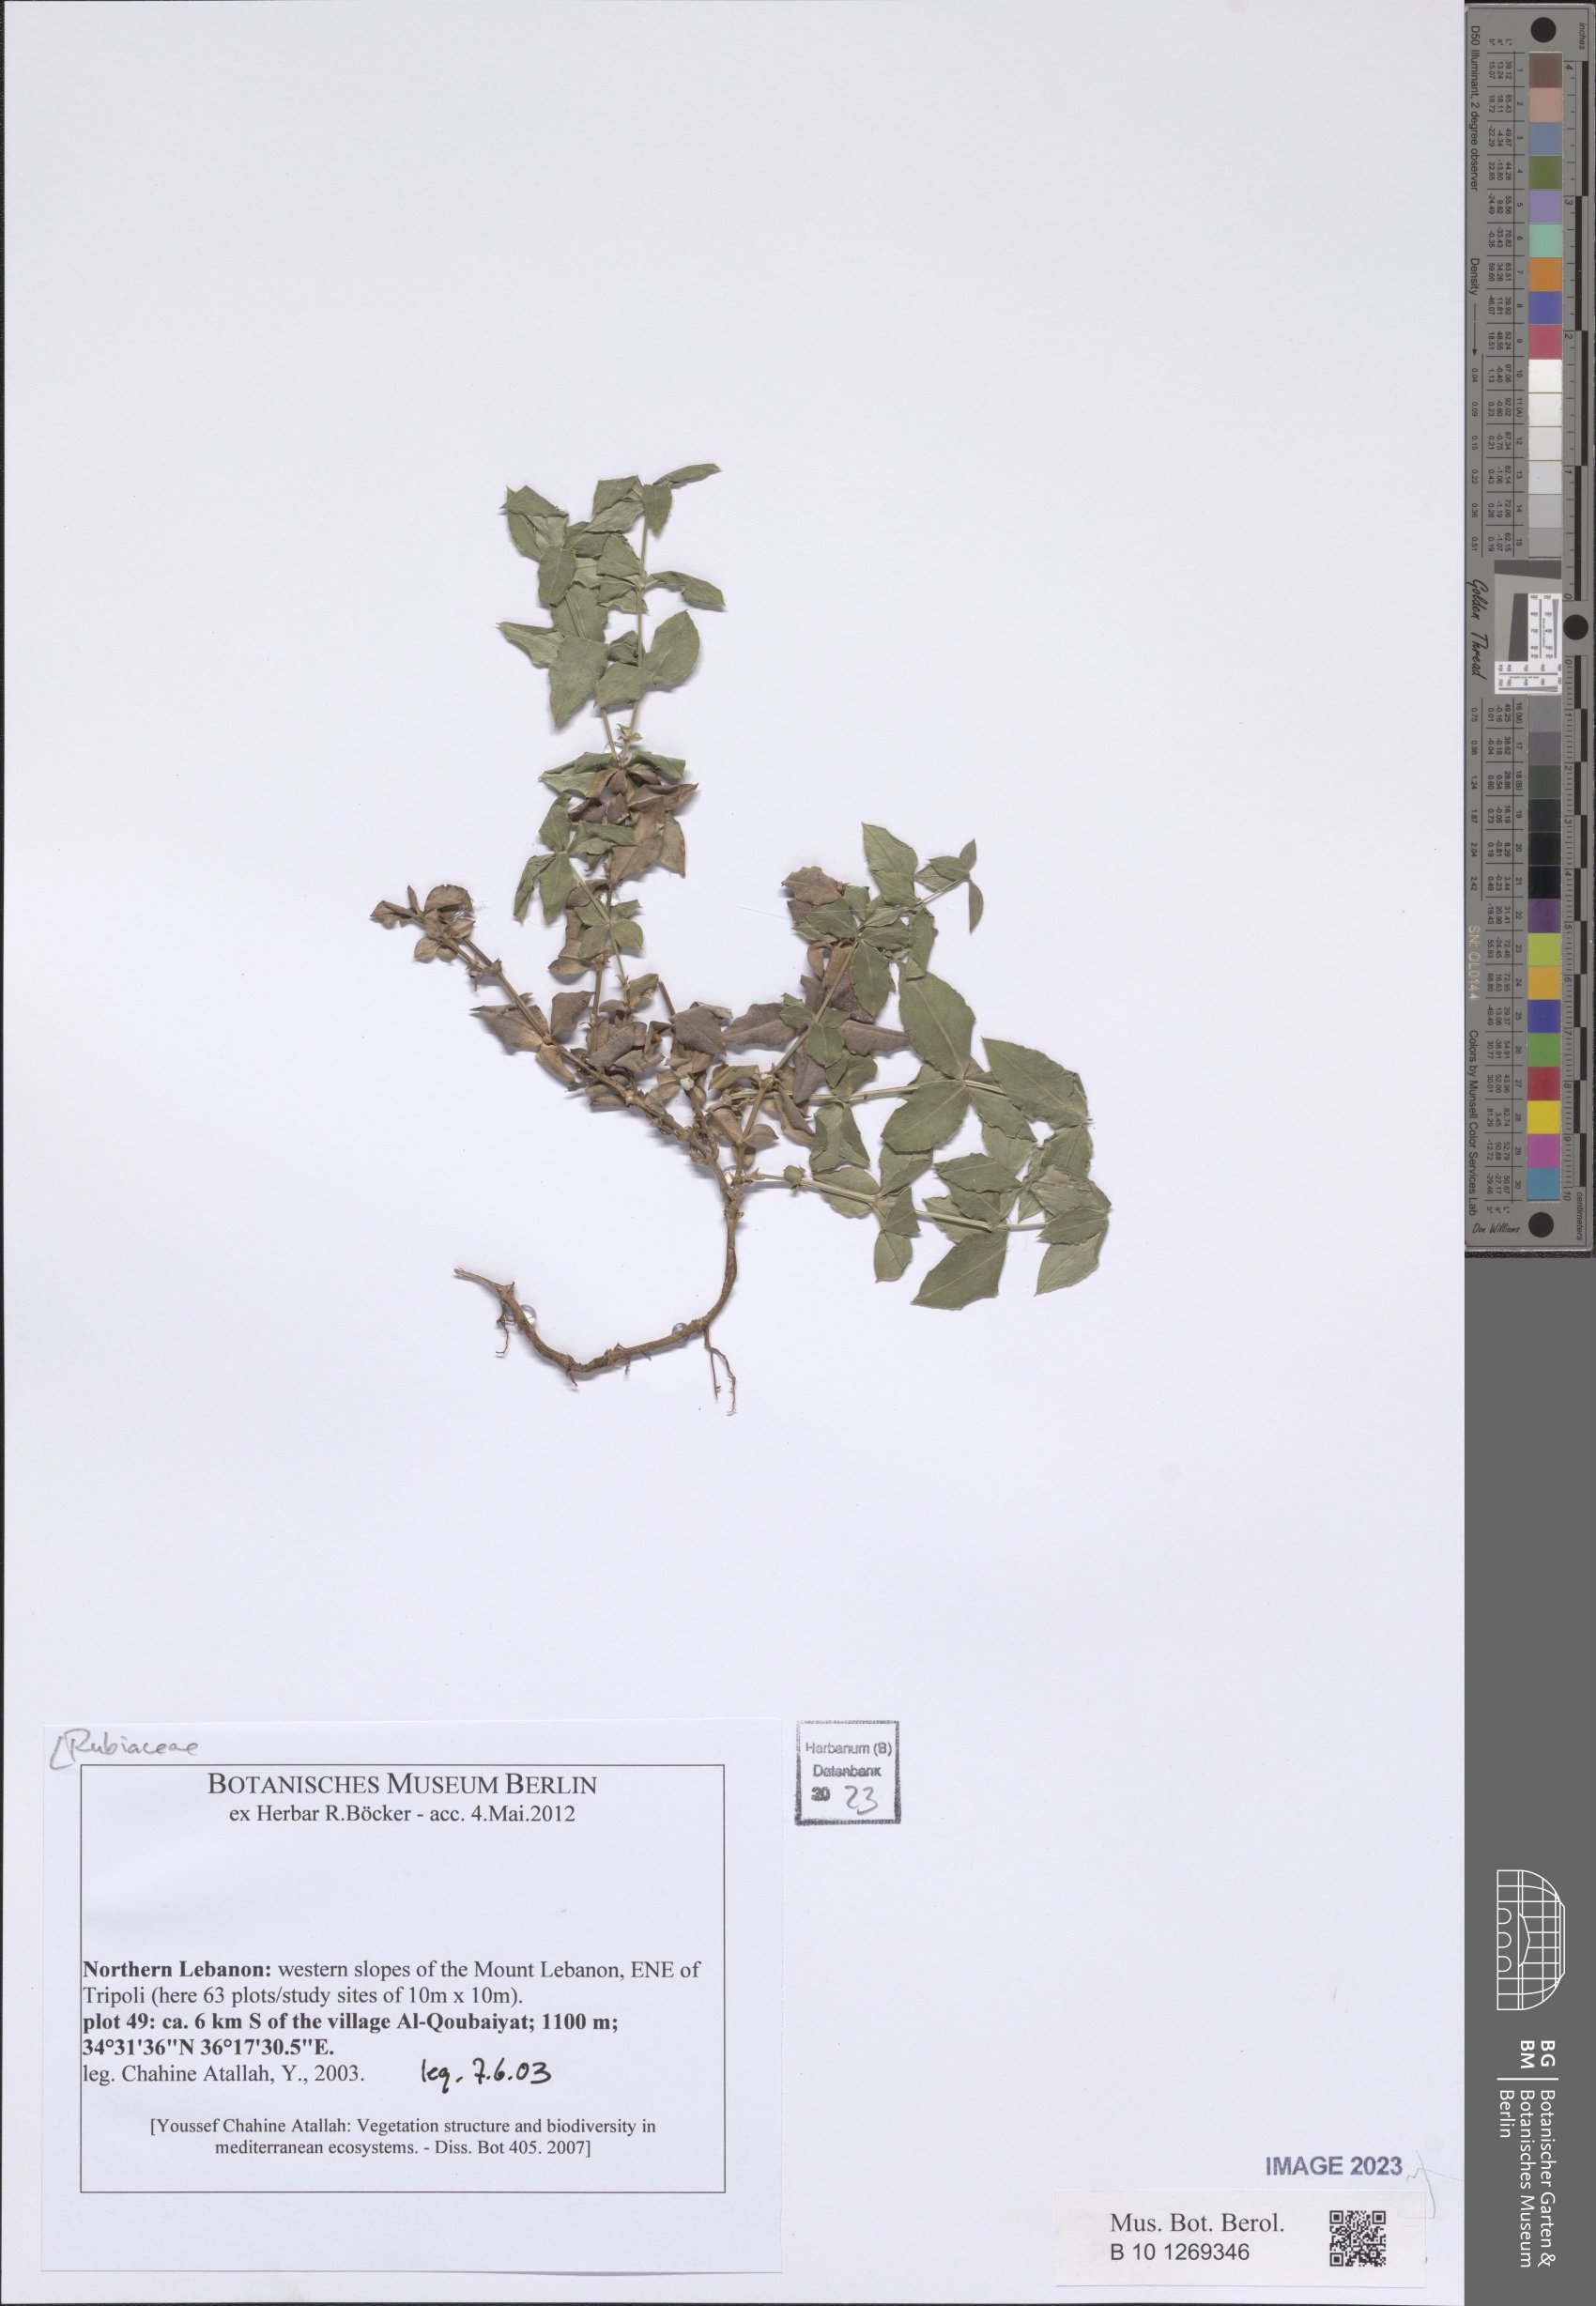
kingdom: Plantae
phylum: Tracheophyta
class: Magnoliopsida
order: Gentianales
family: Rubiaceae
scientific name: Rubiaceae
